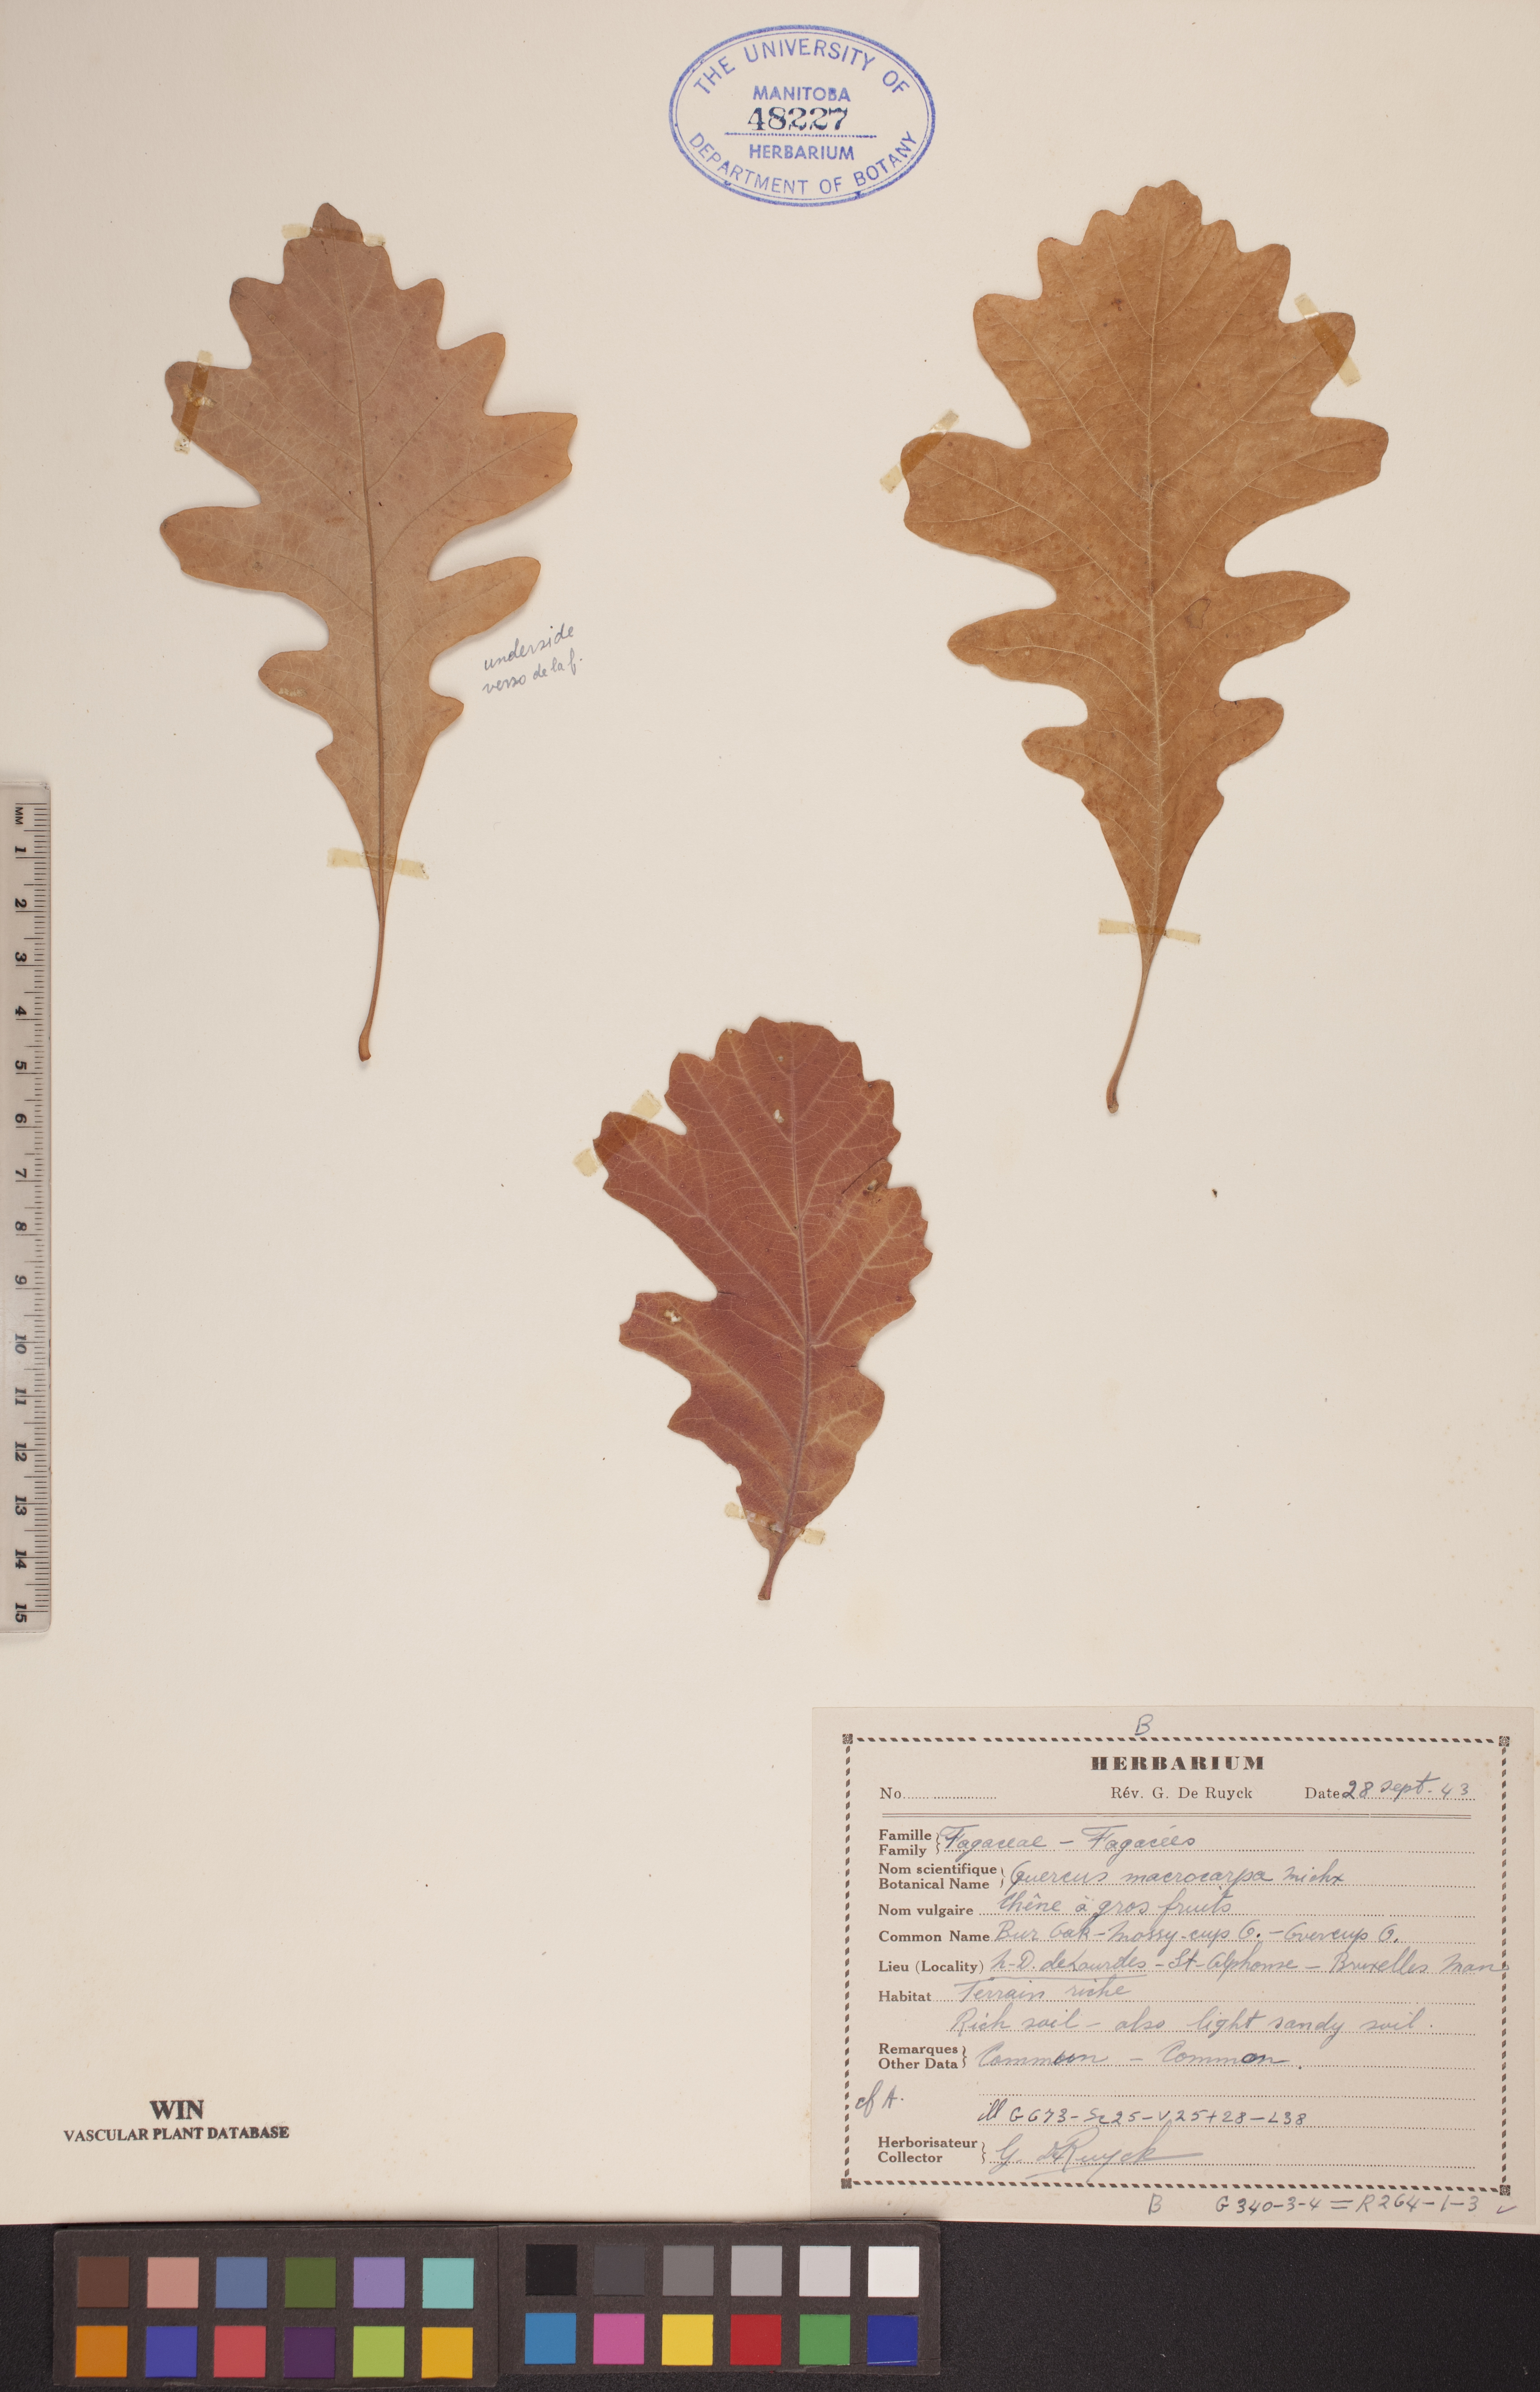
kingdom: Plantae
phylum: Tracheophyta
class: Magnoliopsida
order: Fagales
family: Fagaceae
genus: Quercus
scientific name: Quercus macrocarpa
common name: Bur oak
